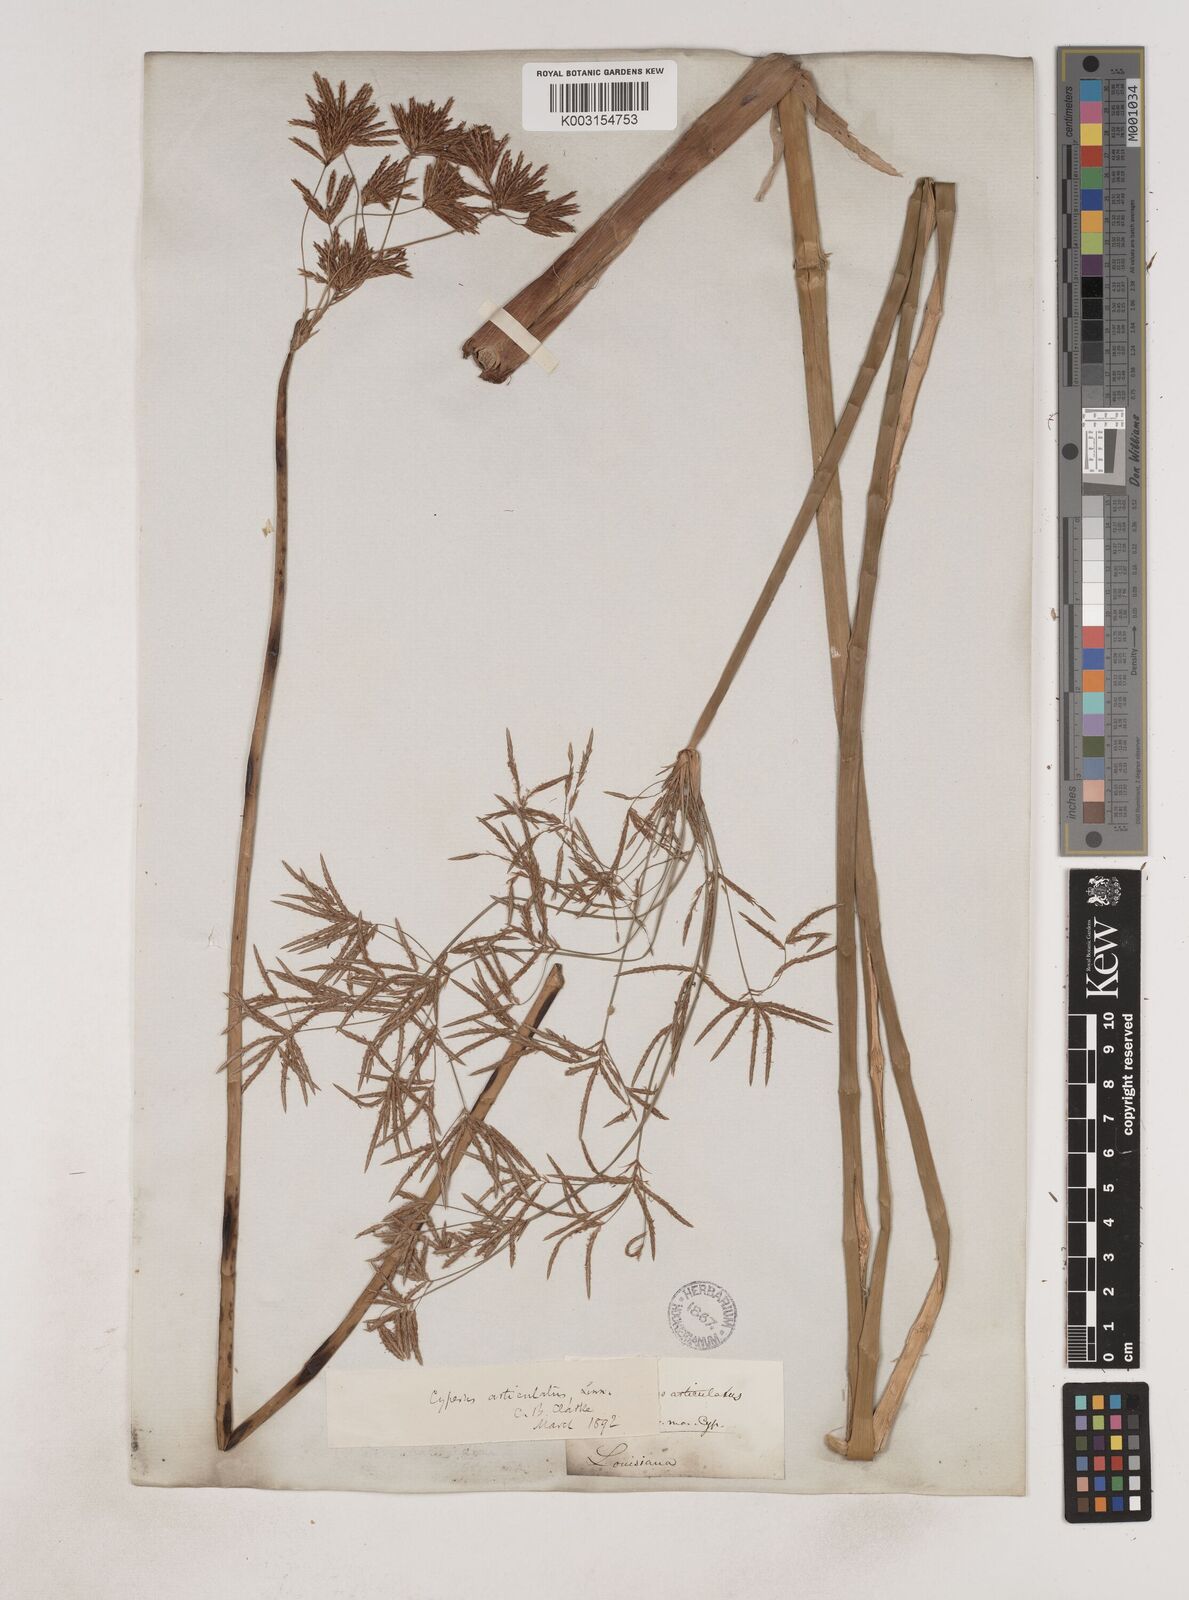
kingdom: Plantae
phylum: Tracheophyta
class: Liliopsida
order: Poales
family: Cyperaceae
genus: Cyperus
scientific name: Cyperus articulatus
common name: Jointed flatsedge
